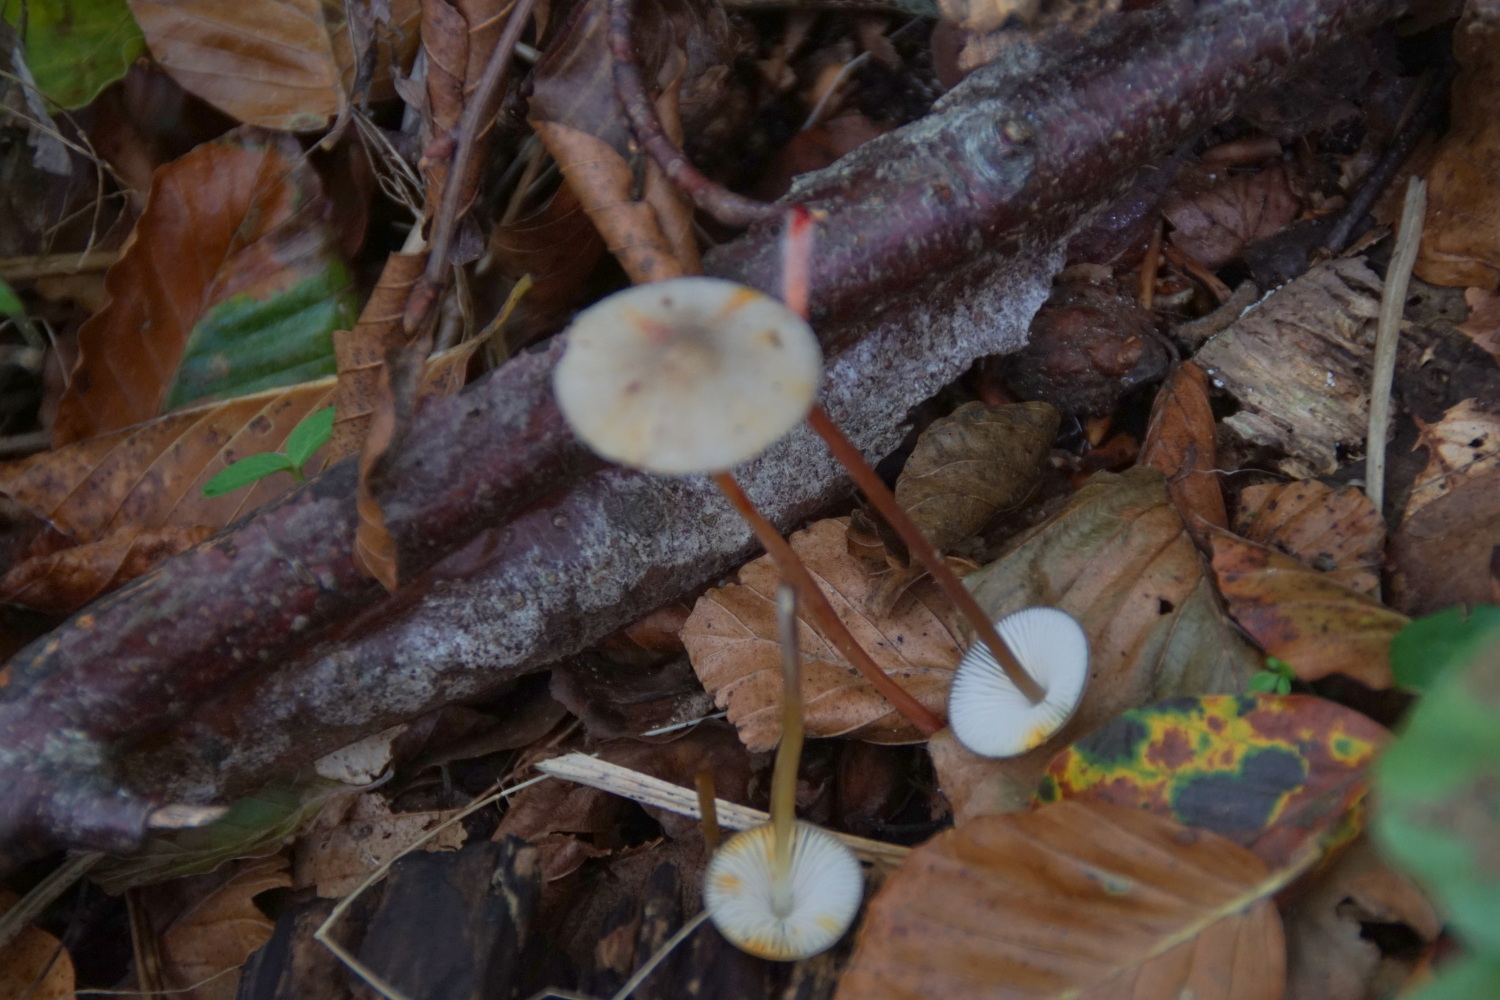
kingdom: Fungi
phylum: Basidiomycota
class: Agaricomycetes
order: Agaricales
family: Mycenaceae
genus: Mycena
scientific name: Mycena crocata
